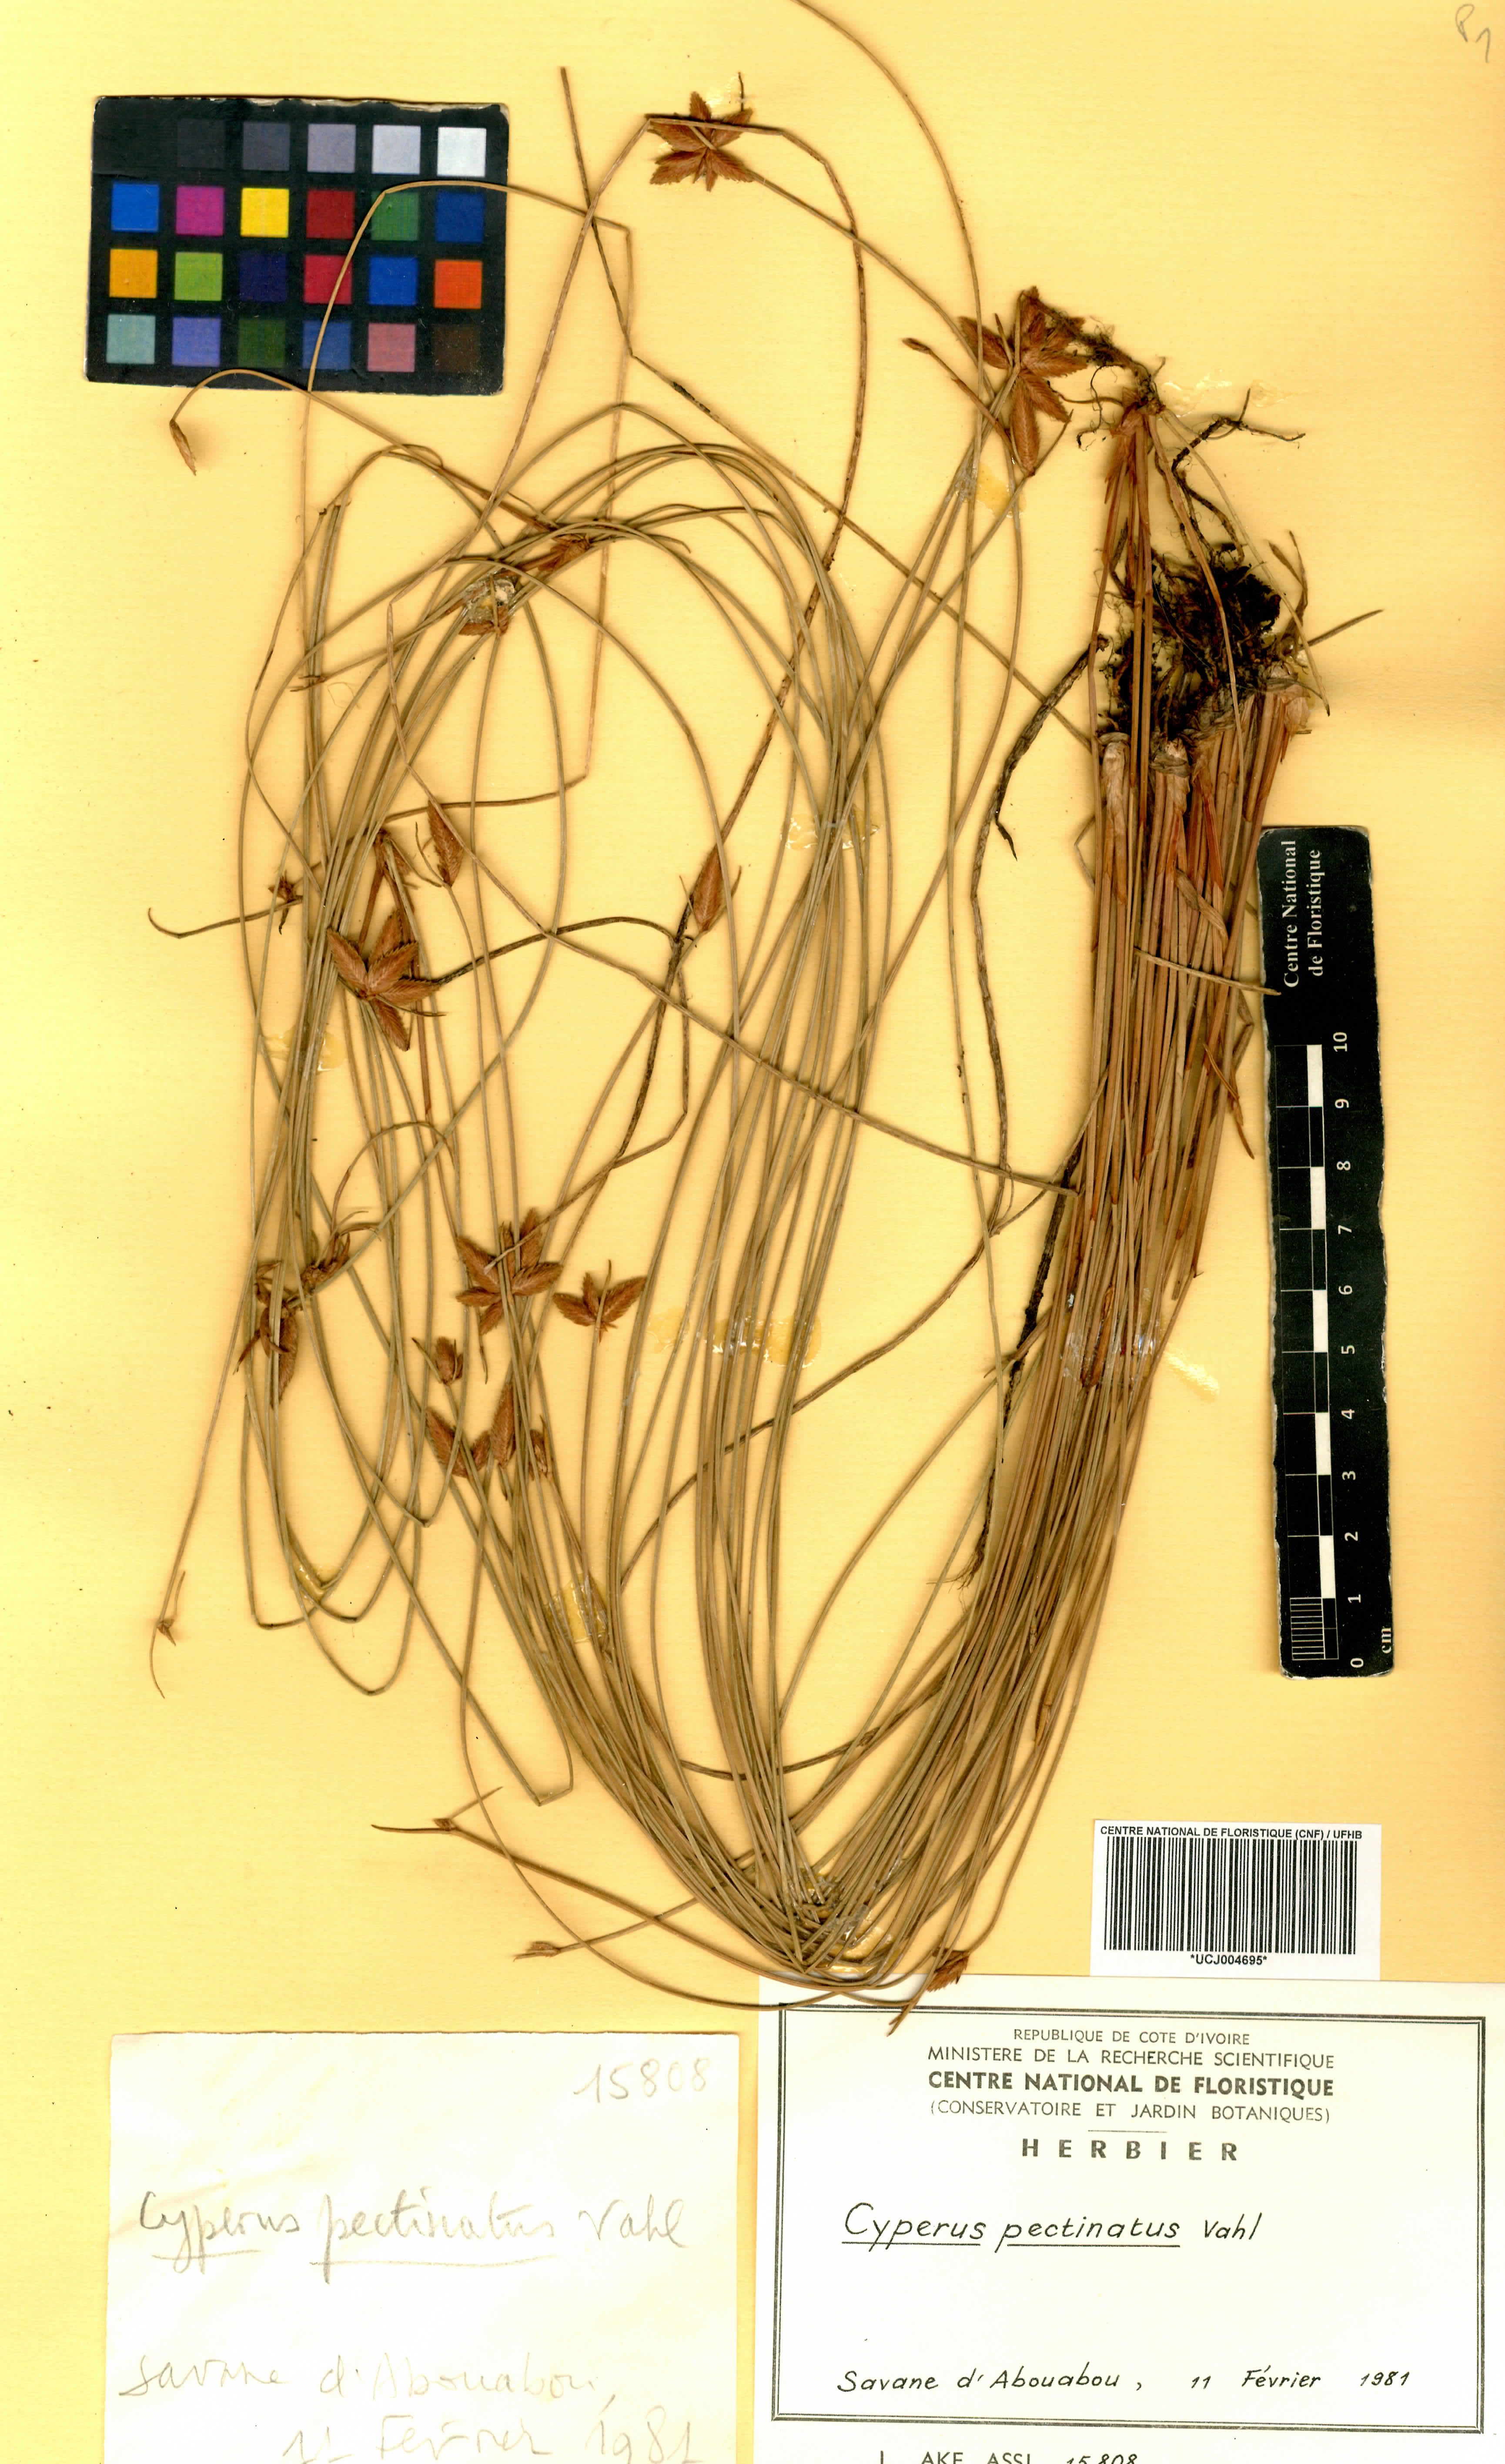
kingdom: Plantae
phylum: Tracheophyta
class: Liliopsida
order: Poales
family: Cyperaceae
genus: Cyperus
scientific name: Cyperus pectinatus
